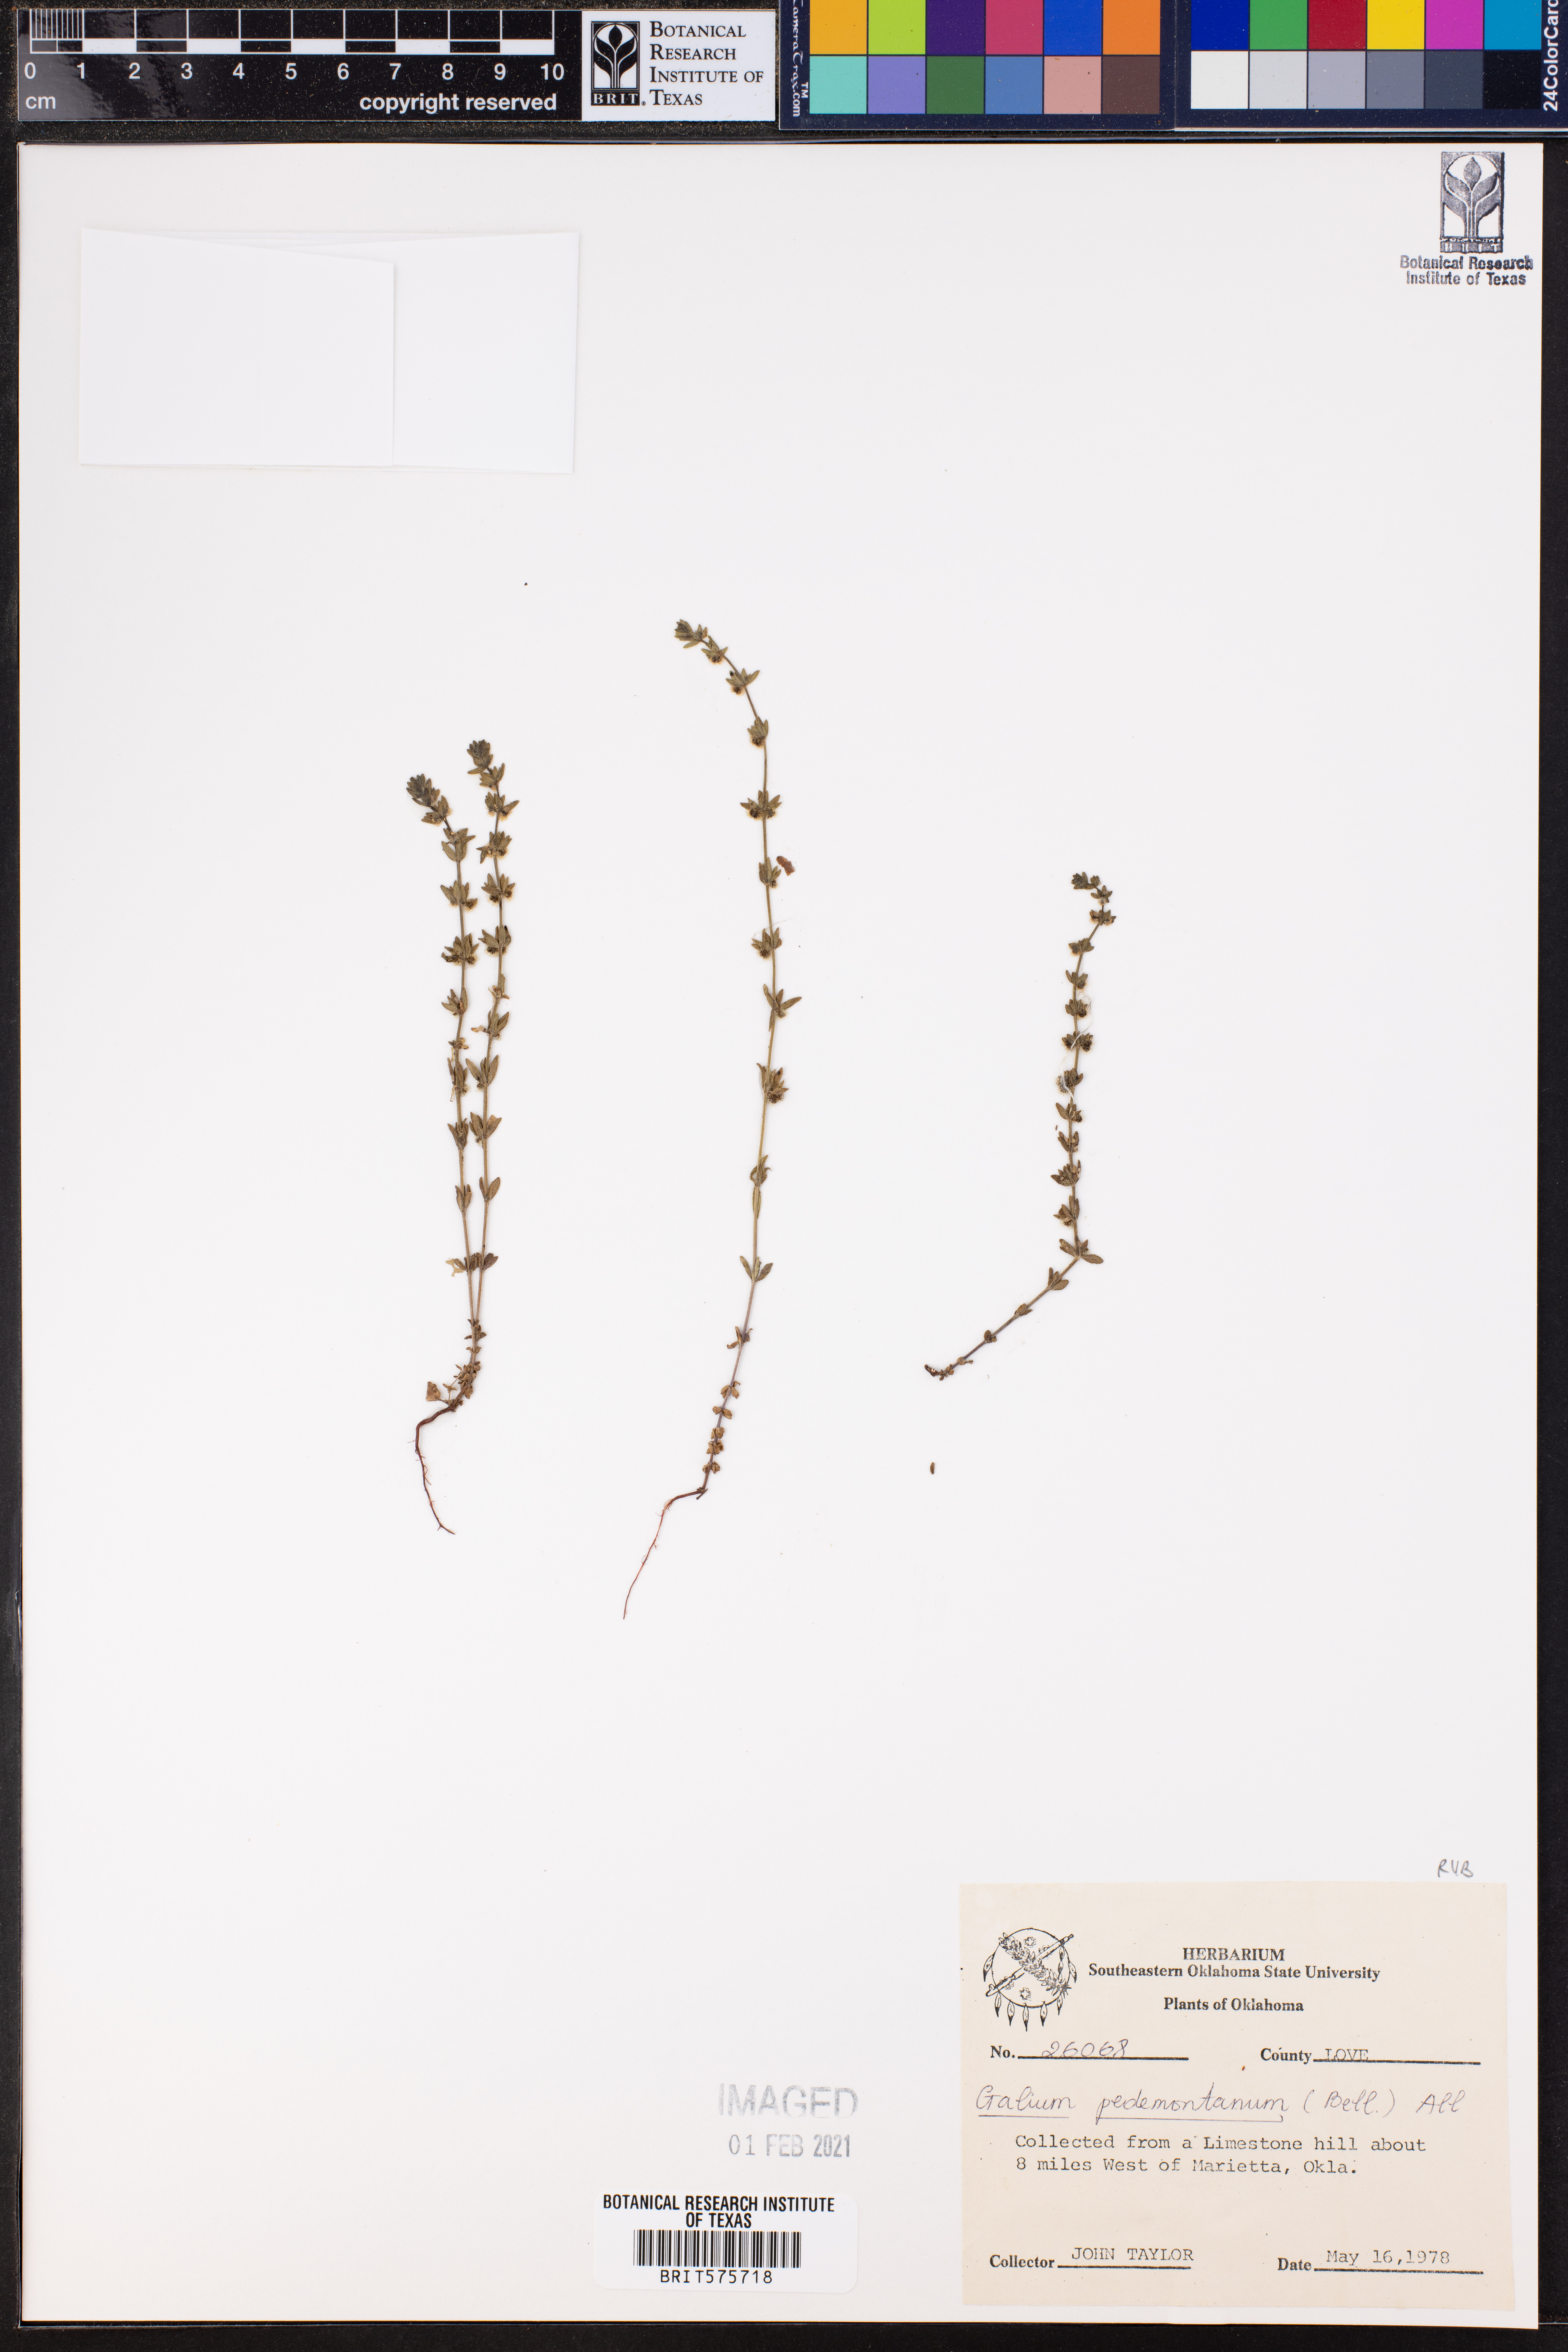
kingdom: Plantae
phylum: Tracheophyta
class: Magnoliopsida
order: Gentianales
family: Rubiaceae
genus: Cruciata
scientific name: Cruciata pedemontana
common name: Piedmont bedstraw
